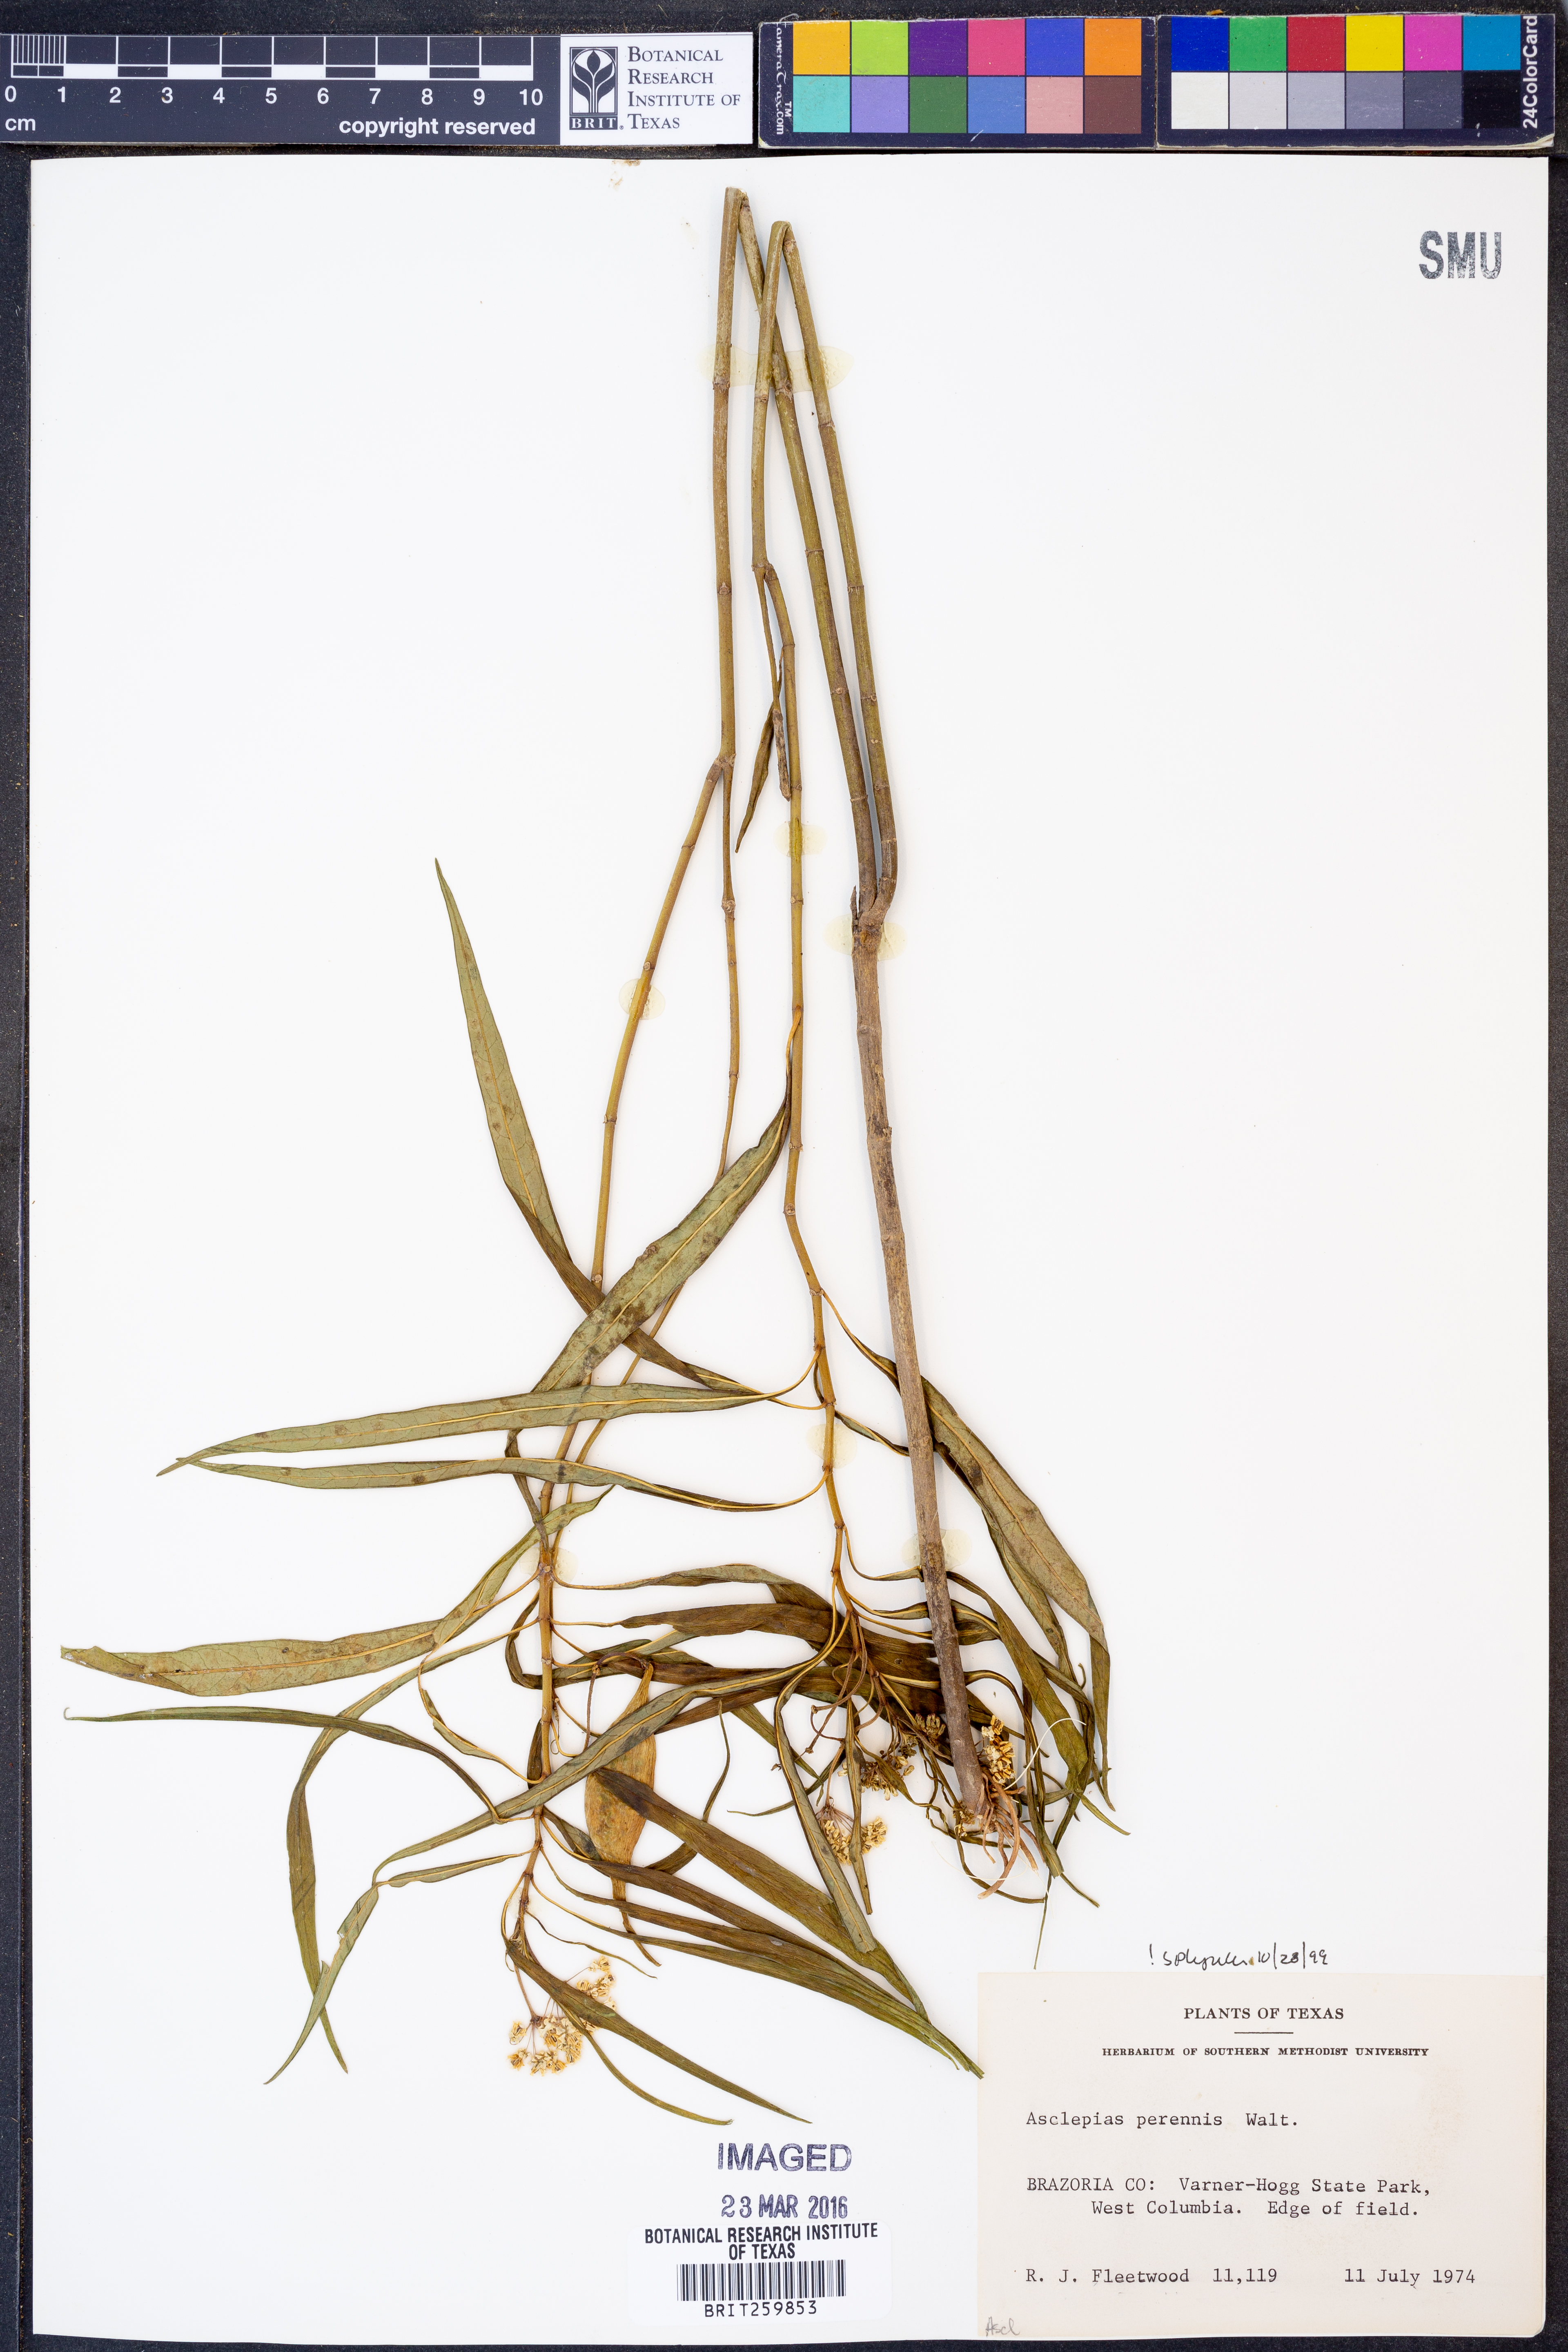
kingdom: Plantae
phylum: Tracheophyta
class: Magnoliopsida
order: Gentianales
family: Apocynaceae
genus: Asclepias
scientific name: Asclepias perennis
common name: Smooth-seed milkweed
